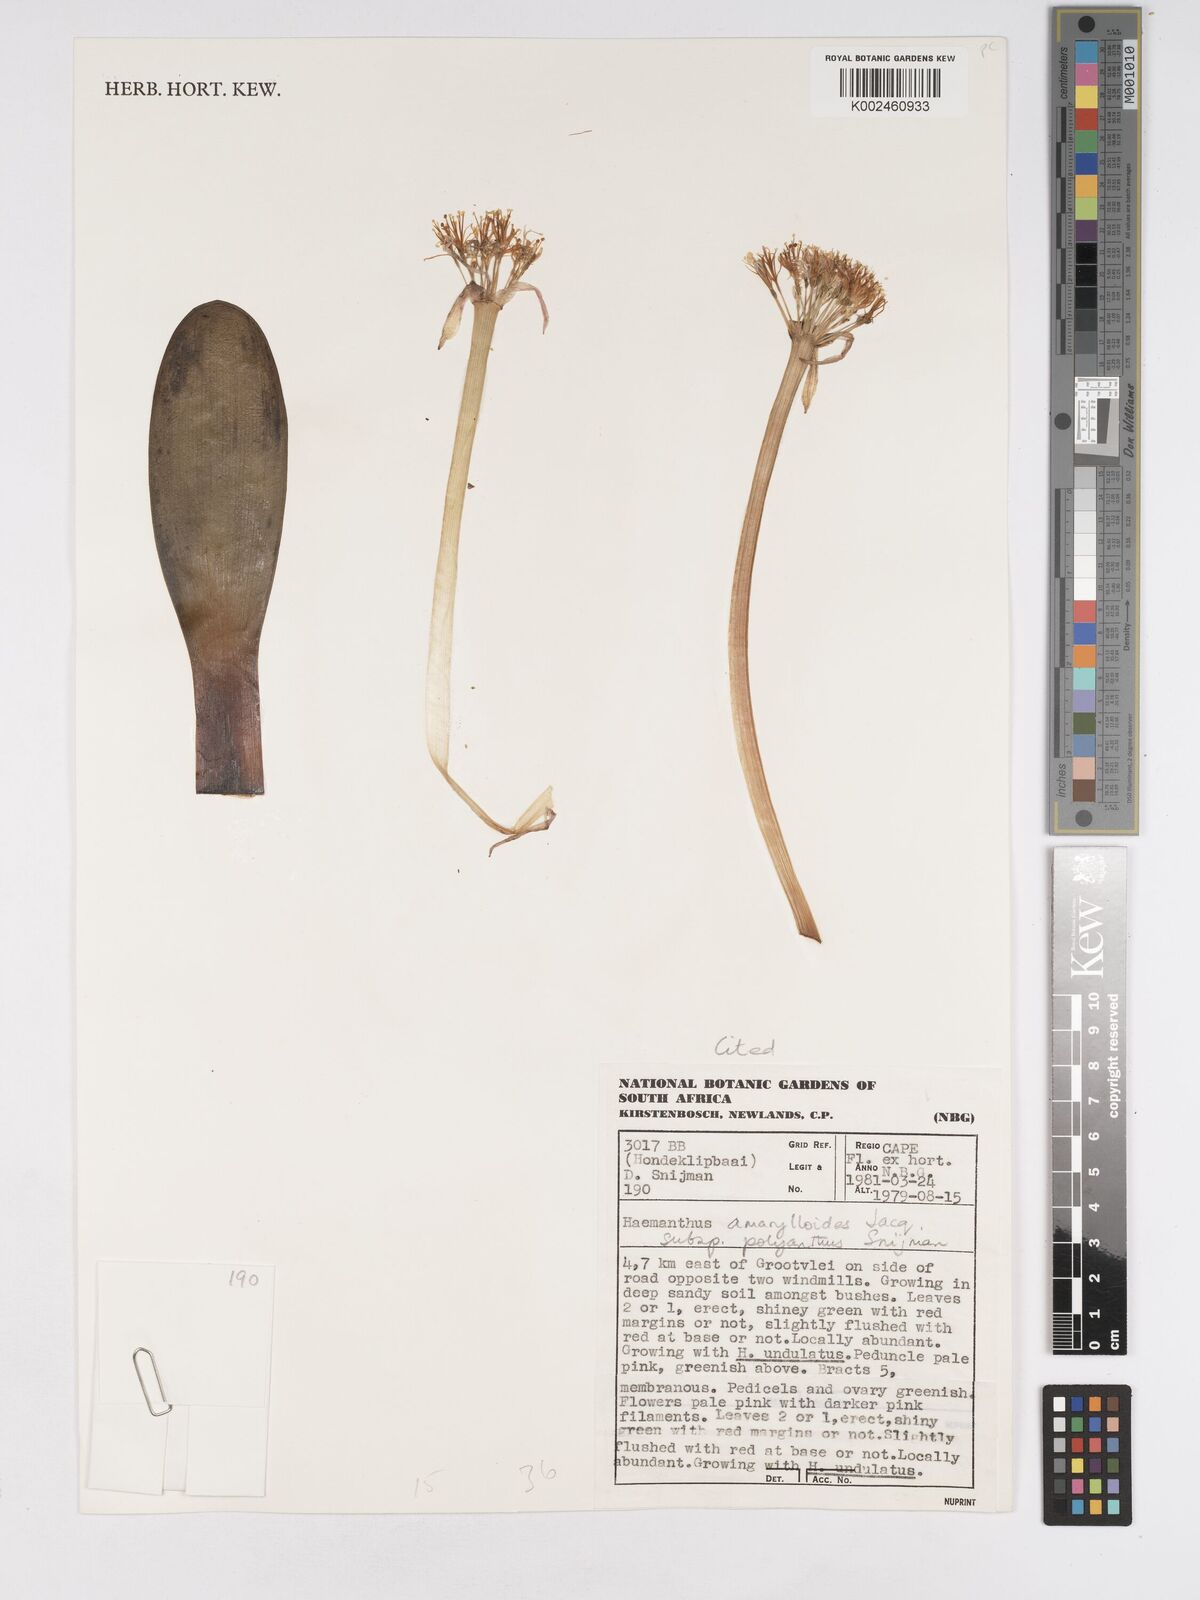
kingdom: Plantae
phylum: Tracheophyta
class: Liliopsida
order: Asparagales
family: Amaryllidaceae
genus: Haemanthus
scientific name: Haemanthus amarylloides
